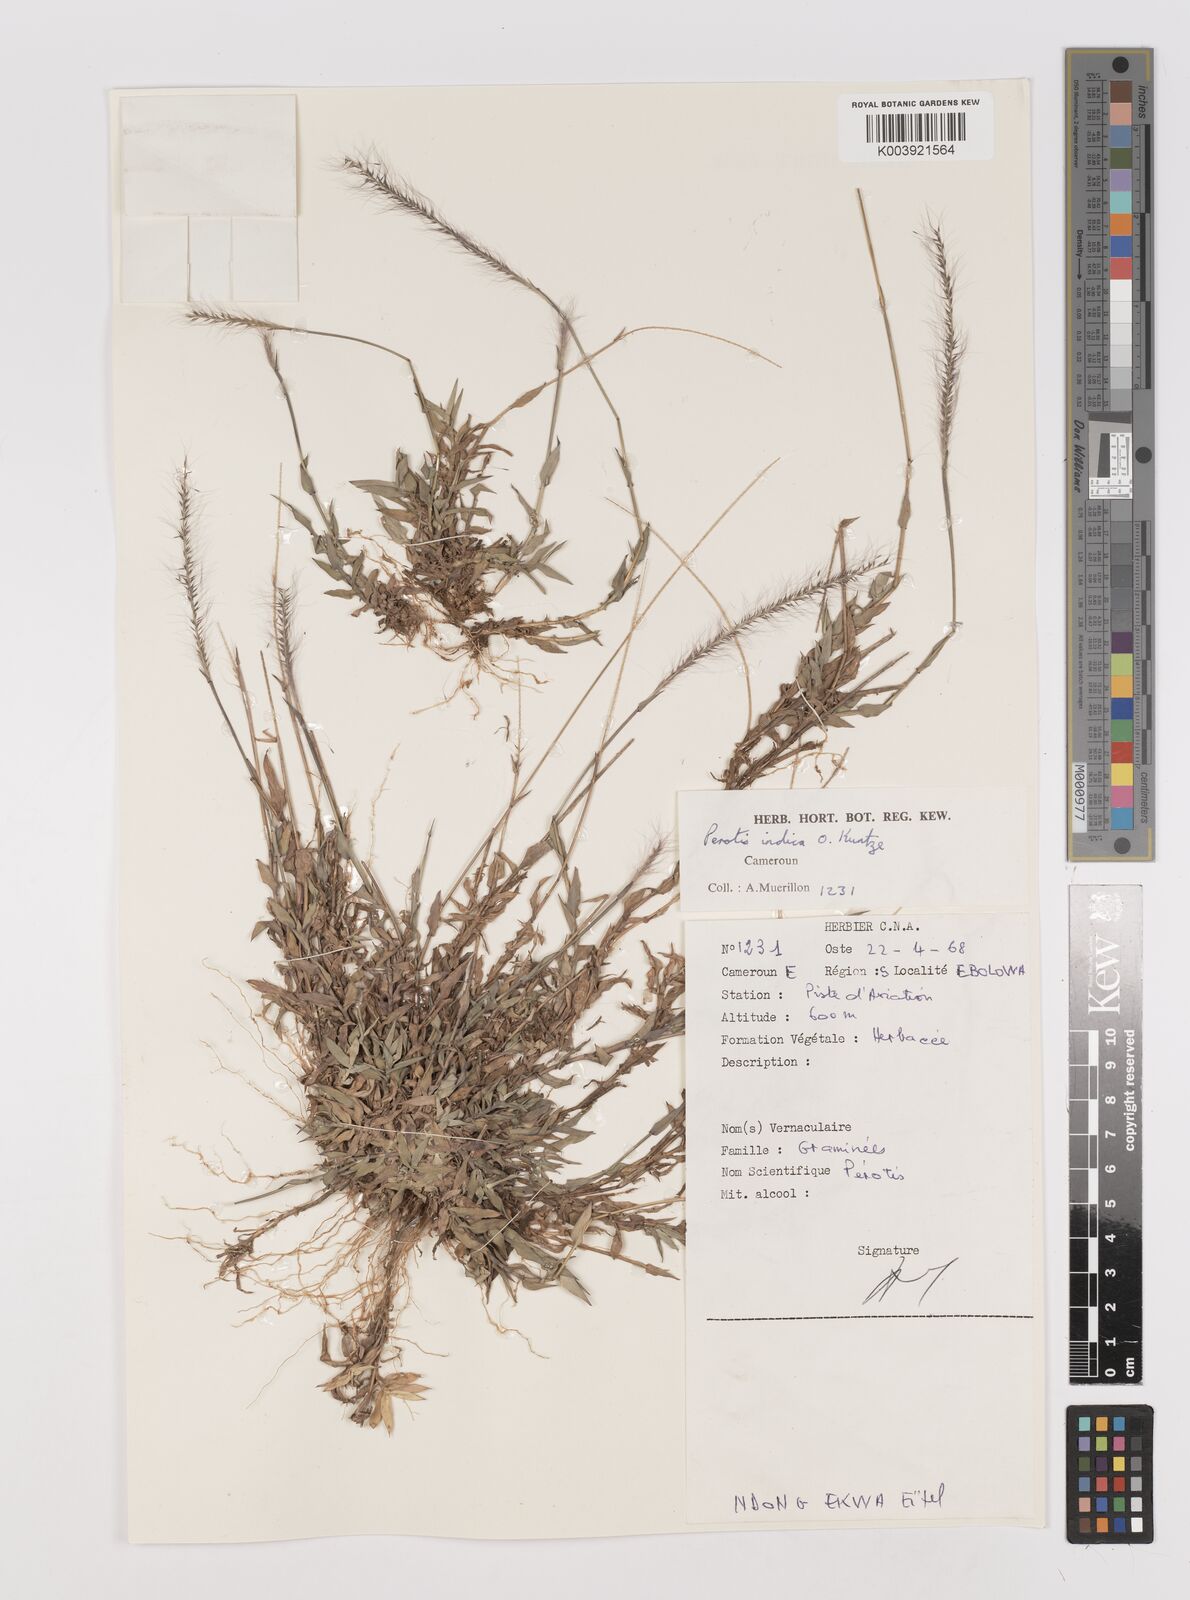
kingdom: Plantae
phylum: Tracheophyta
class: Liliopsida
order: Poales
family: Poaceae
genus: Perotis
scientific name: Perotis indica
